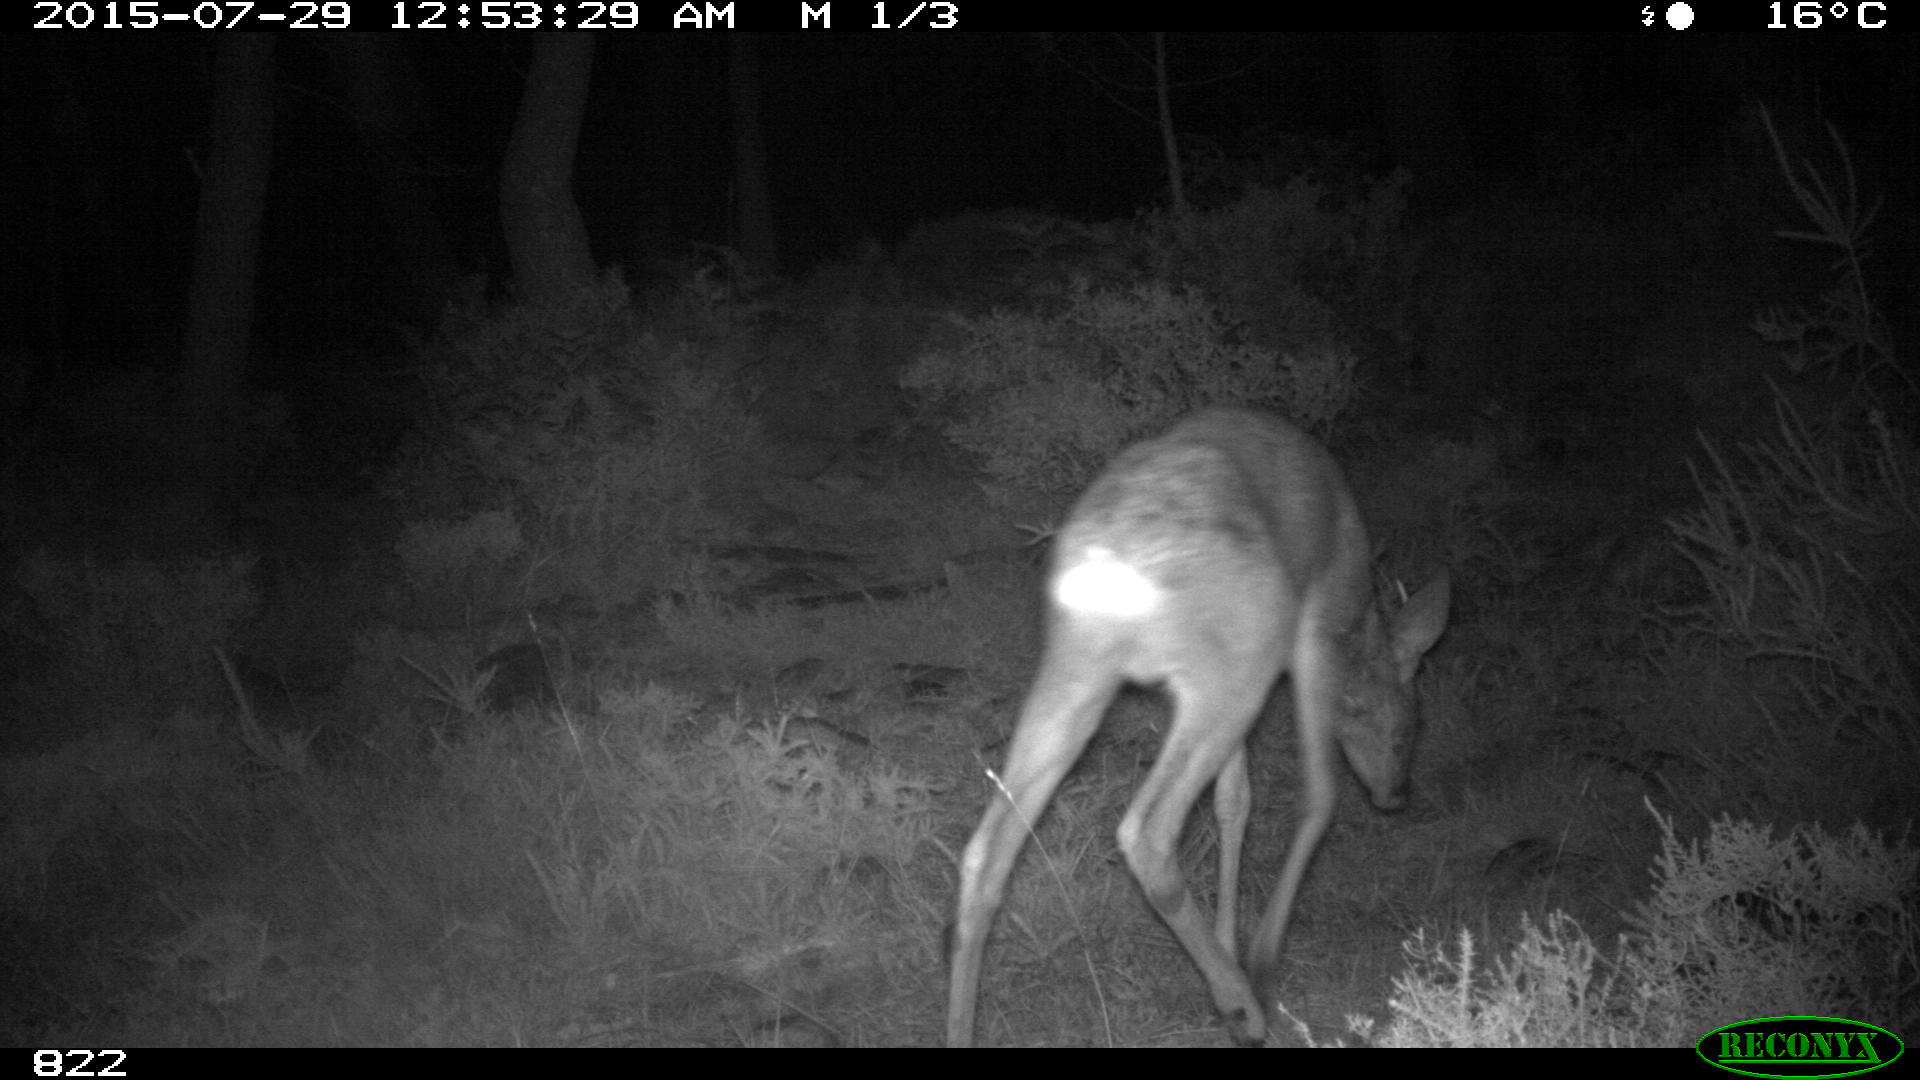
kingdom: Animalia
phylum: Chordata
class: Mammalia
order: Artiodactyla
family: Cervidae
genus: Capreolus
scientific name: Capreolus capreolus
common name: Western roe deer
